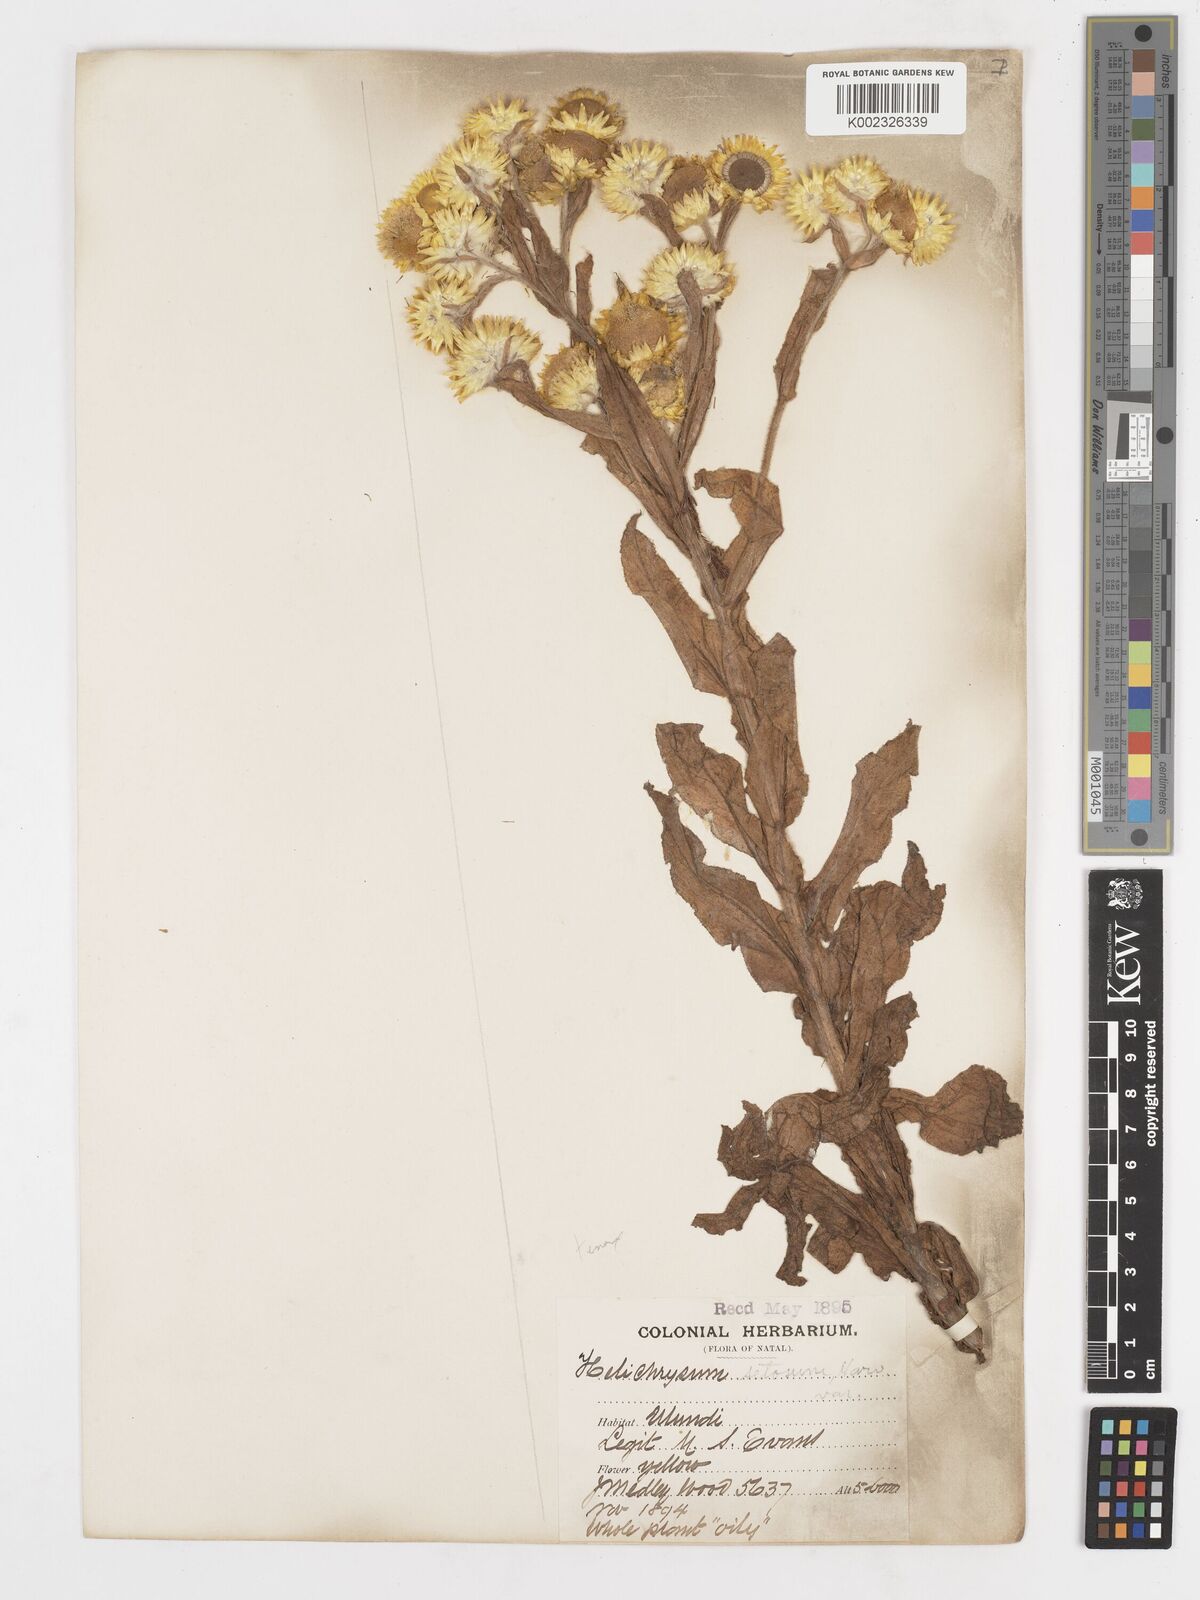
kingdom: Plantae
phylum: Tracheophyta
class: Magnoliopsida
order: Asterales
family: Asteraceae
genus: Helichrysum
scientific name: Helichrysum tenax
